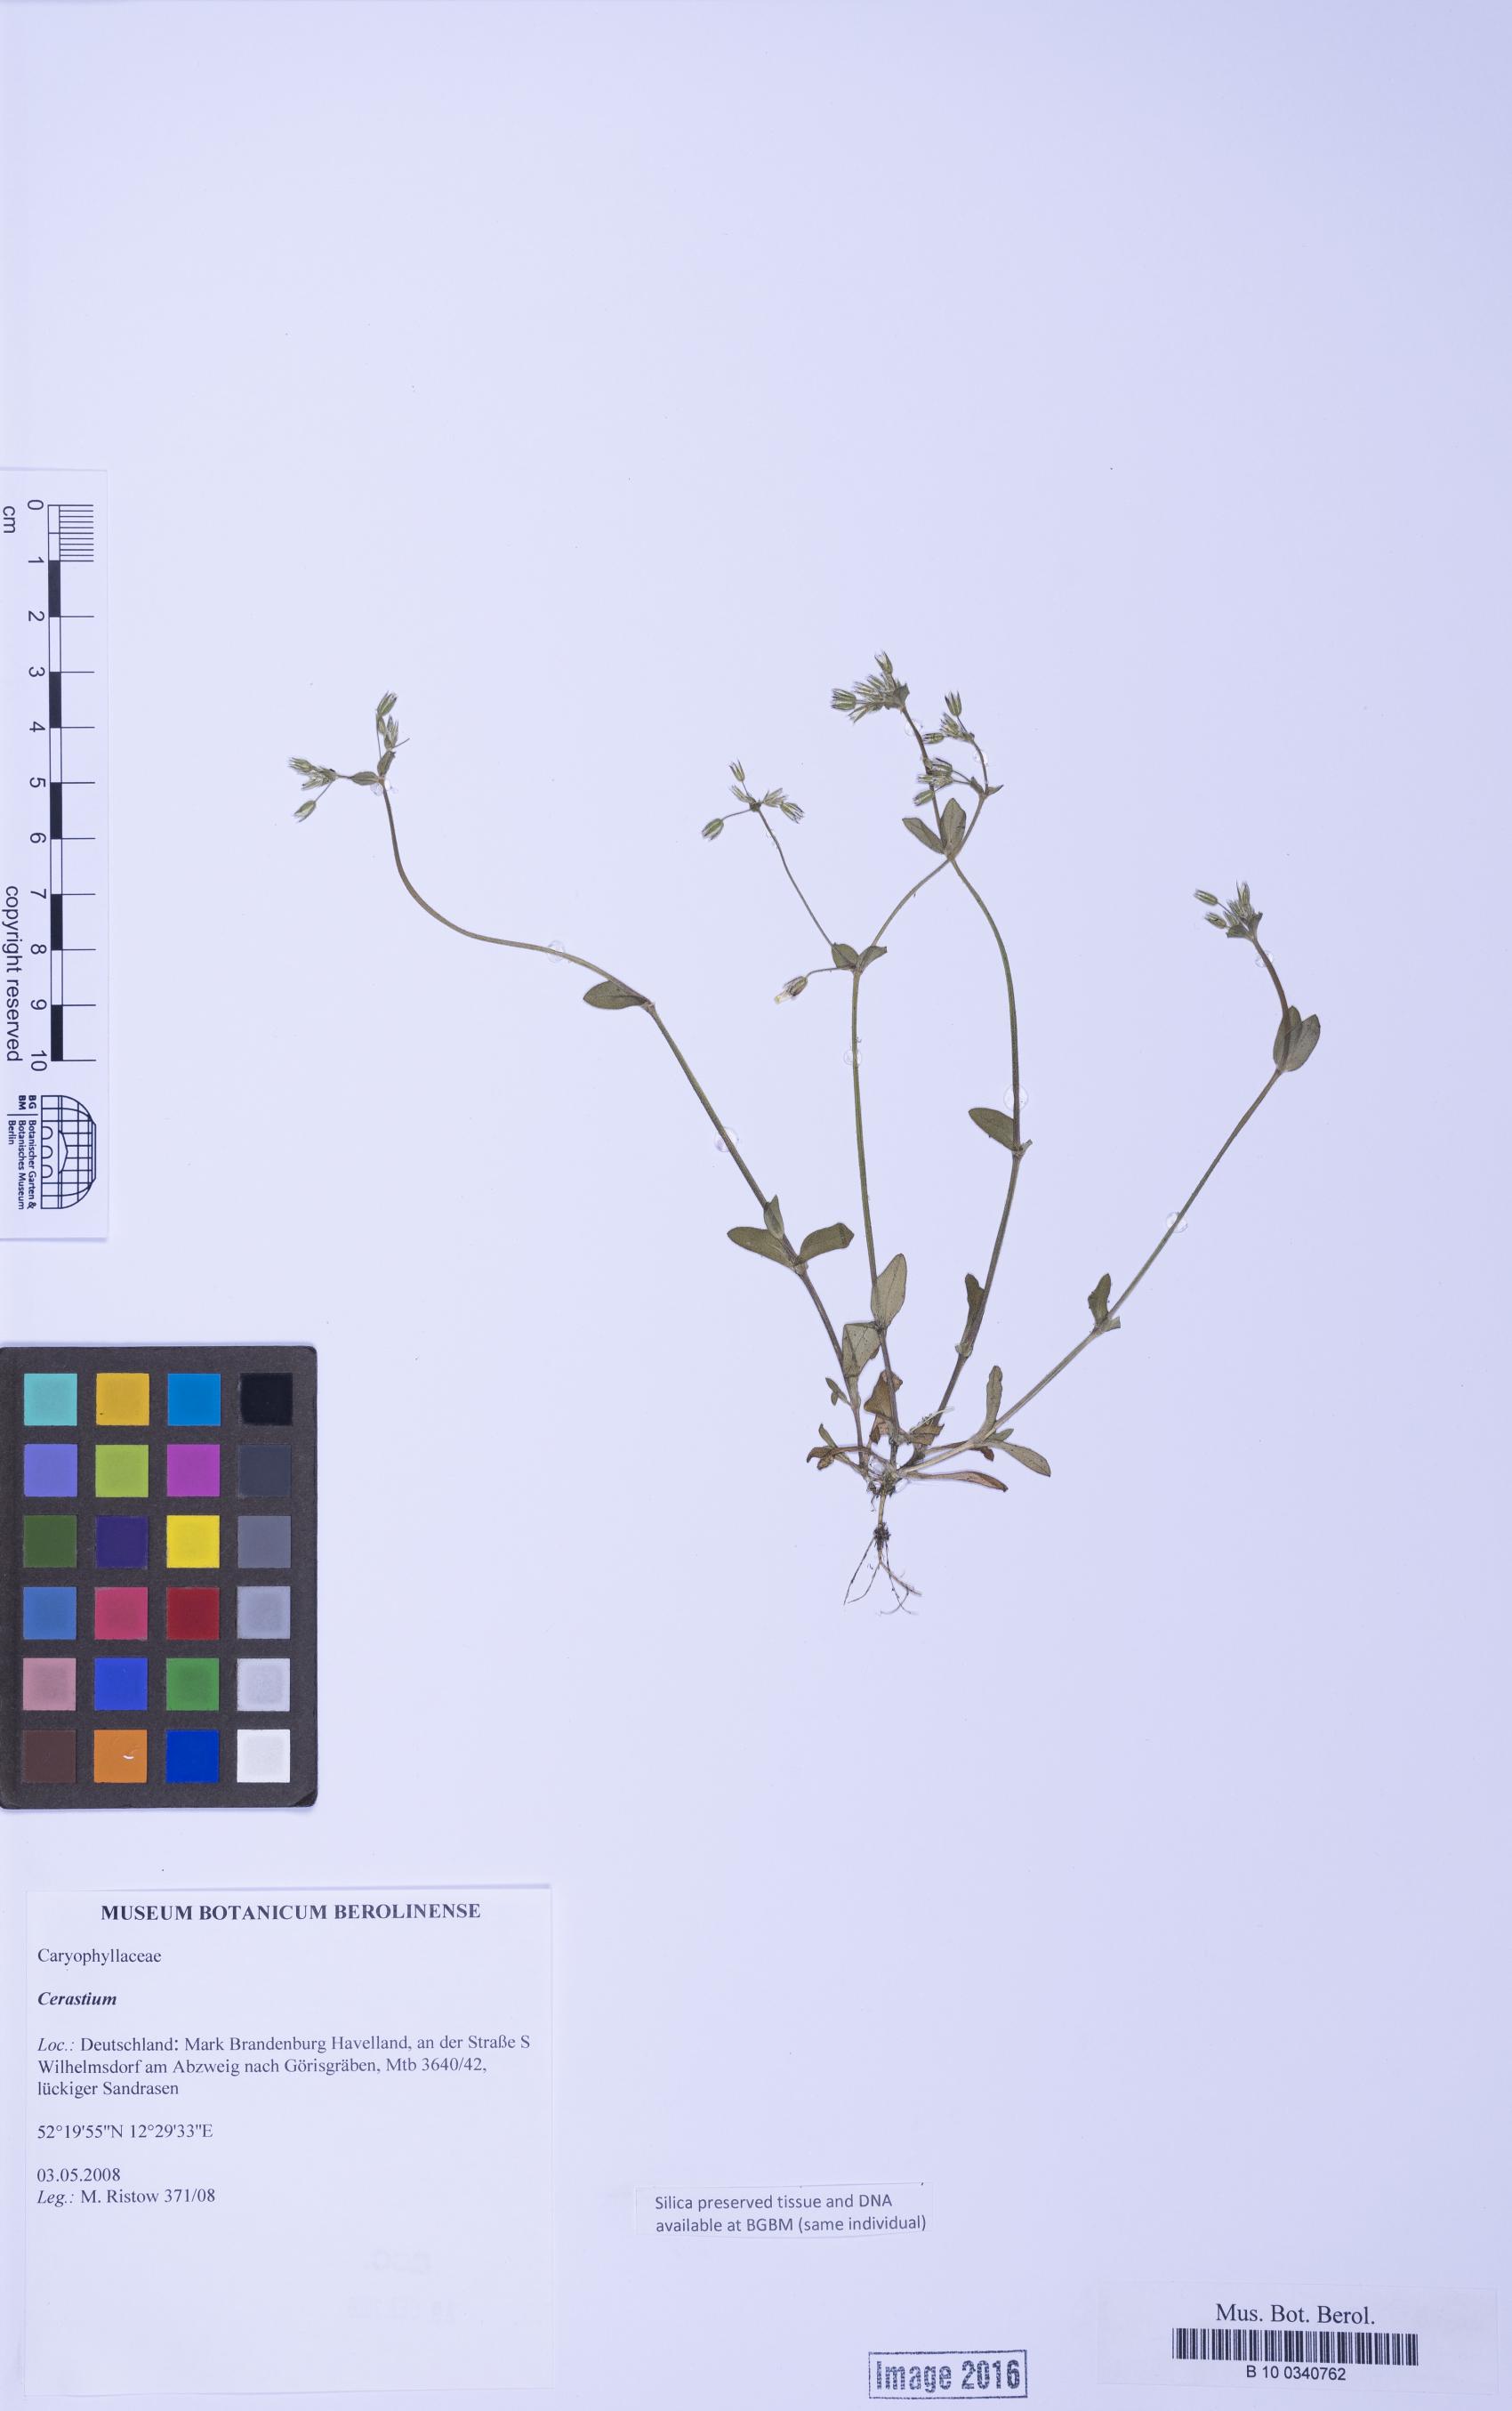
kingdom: Plantae
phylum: Tracheophyta
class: Magnoliopsida
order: Caryophyllales
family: Caryophyllaceae
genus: Cerastium
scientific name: Cerastium
